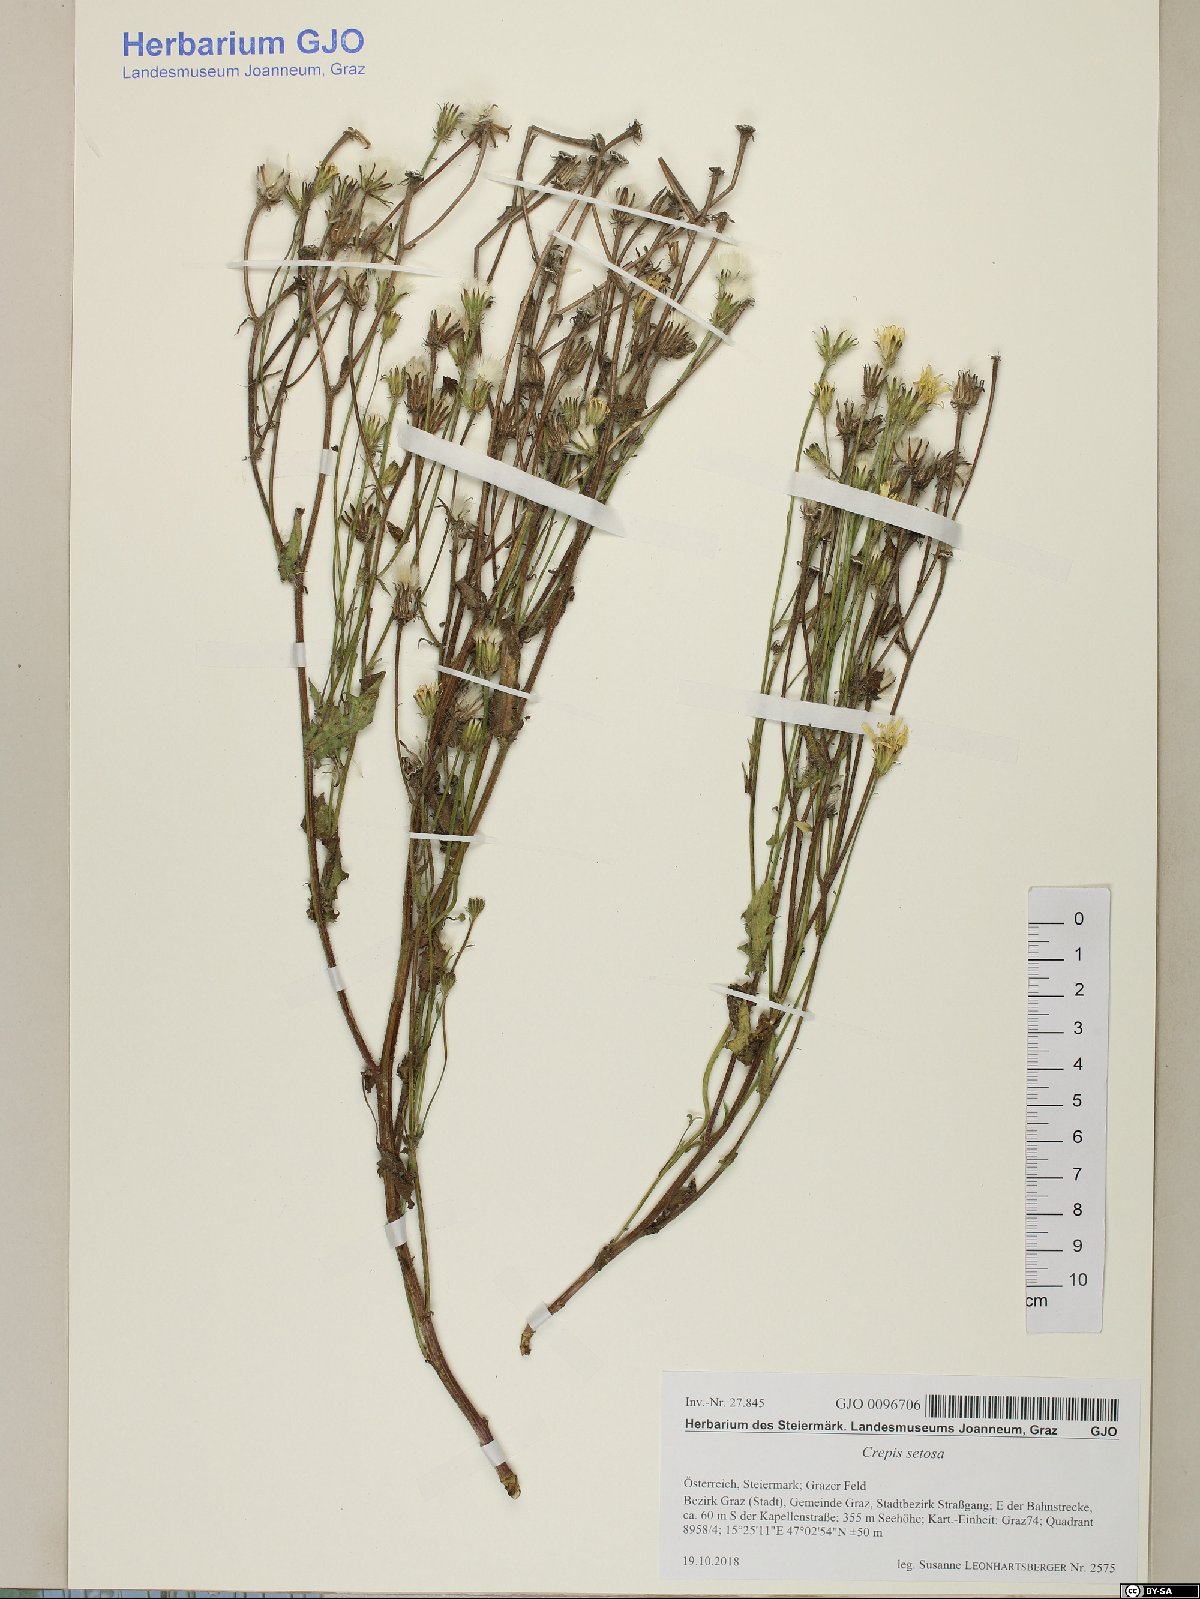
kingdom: Plantae
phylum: Tracheophyta
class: Magnoliopsida
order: Asterales
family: Asteraceae
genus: Crepis
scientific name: Crepis setosa
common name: Bristly hawk's-beard
